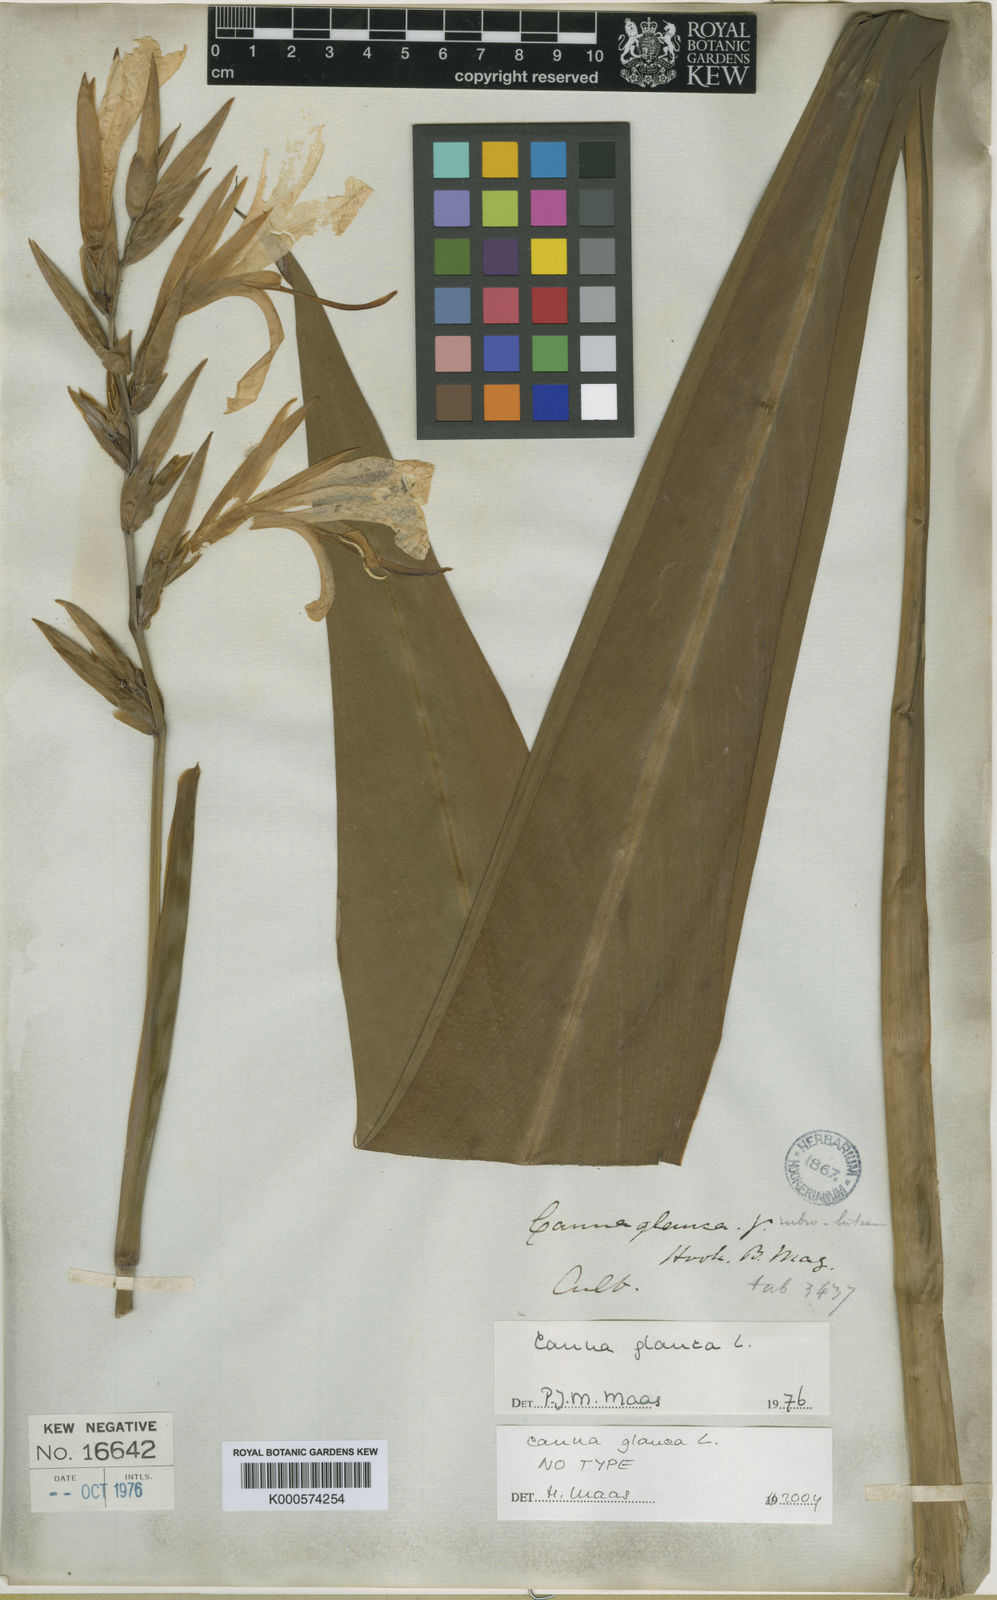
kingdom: Plantae
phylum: Tracheophyta
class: Liliopsida
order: Zingiberales
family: Cannaceae
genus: Canna
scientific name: Canna glauca
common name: Louisiana canna
